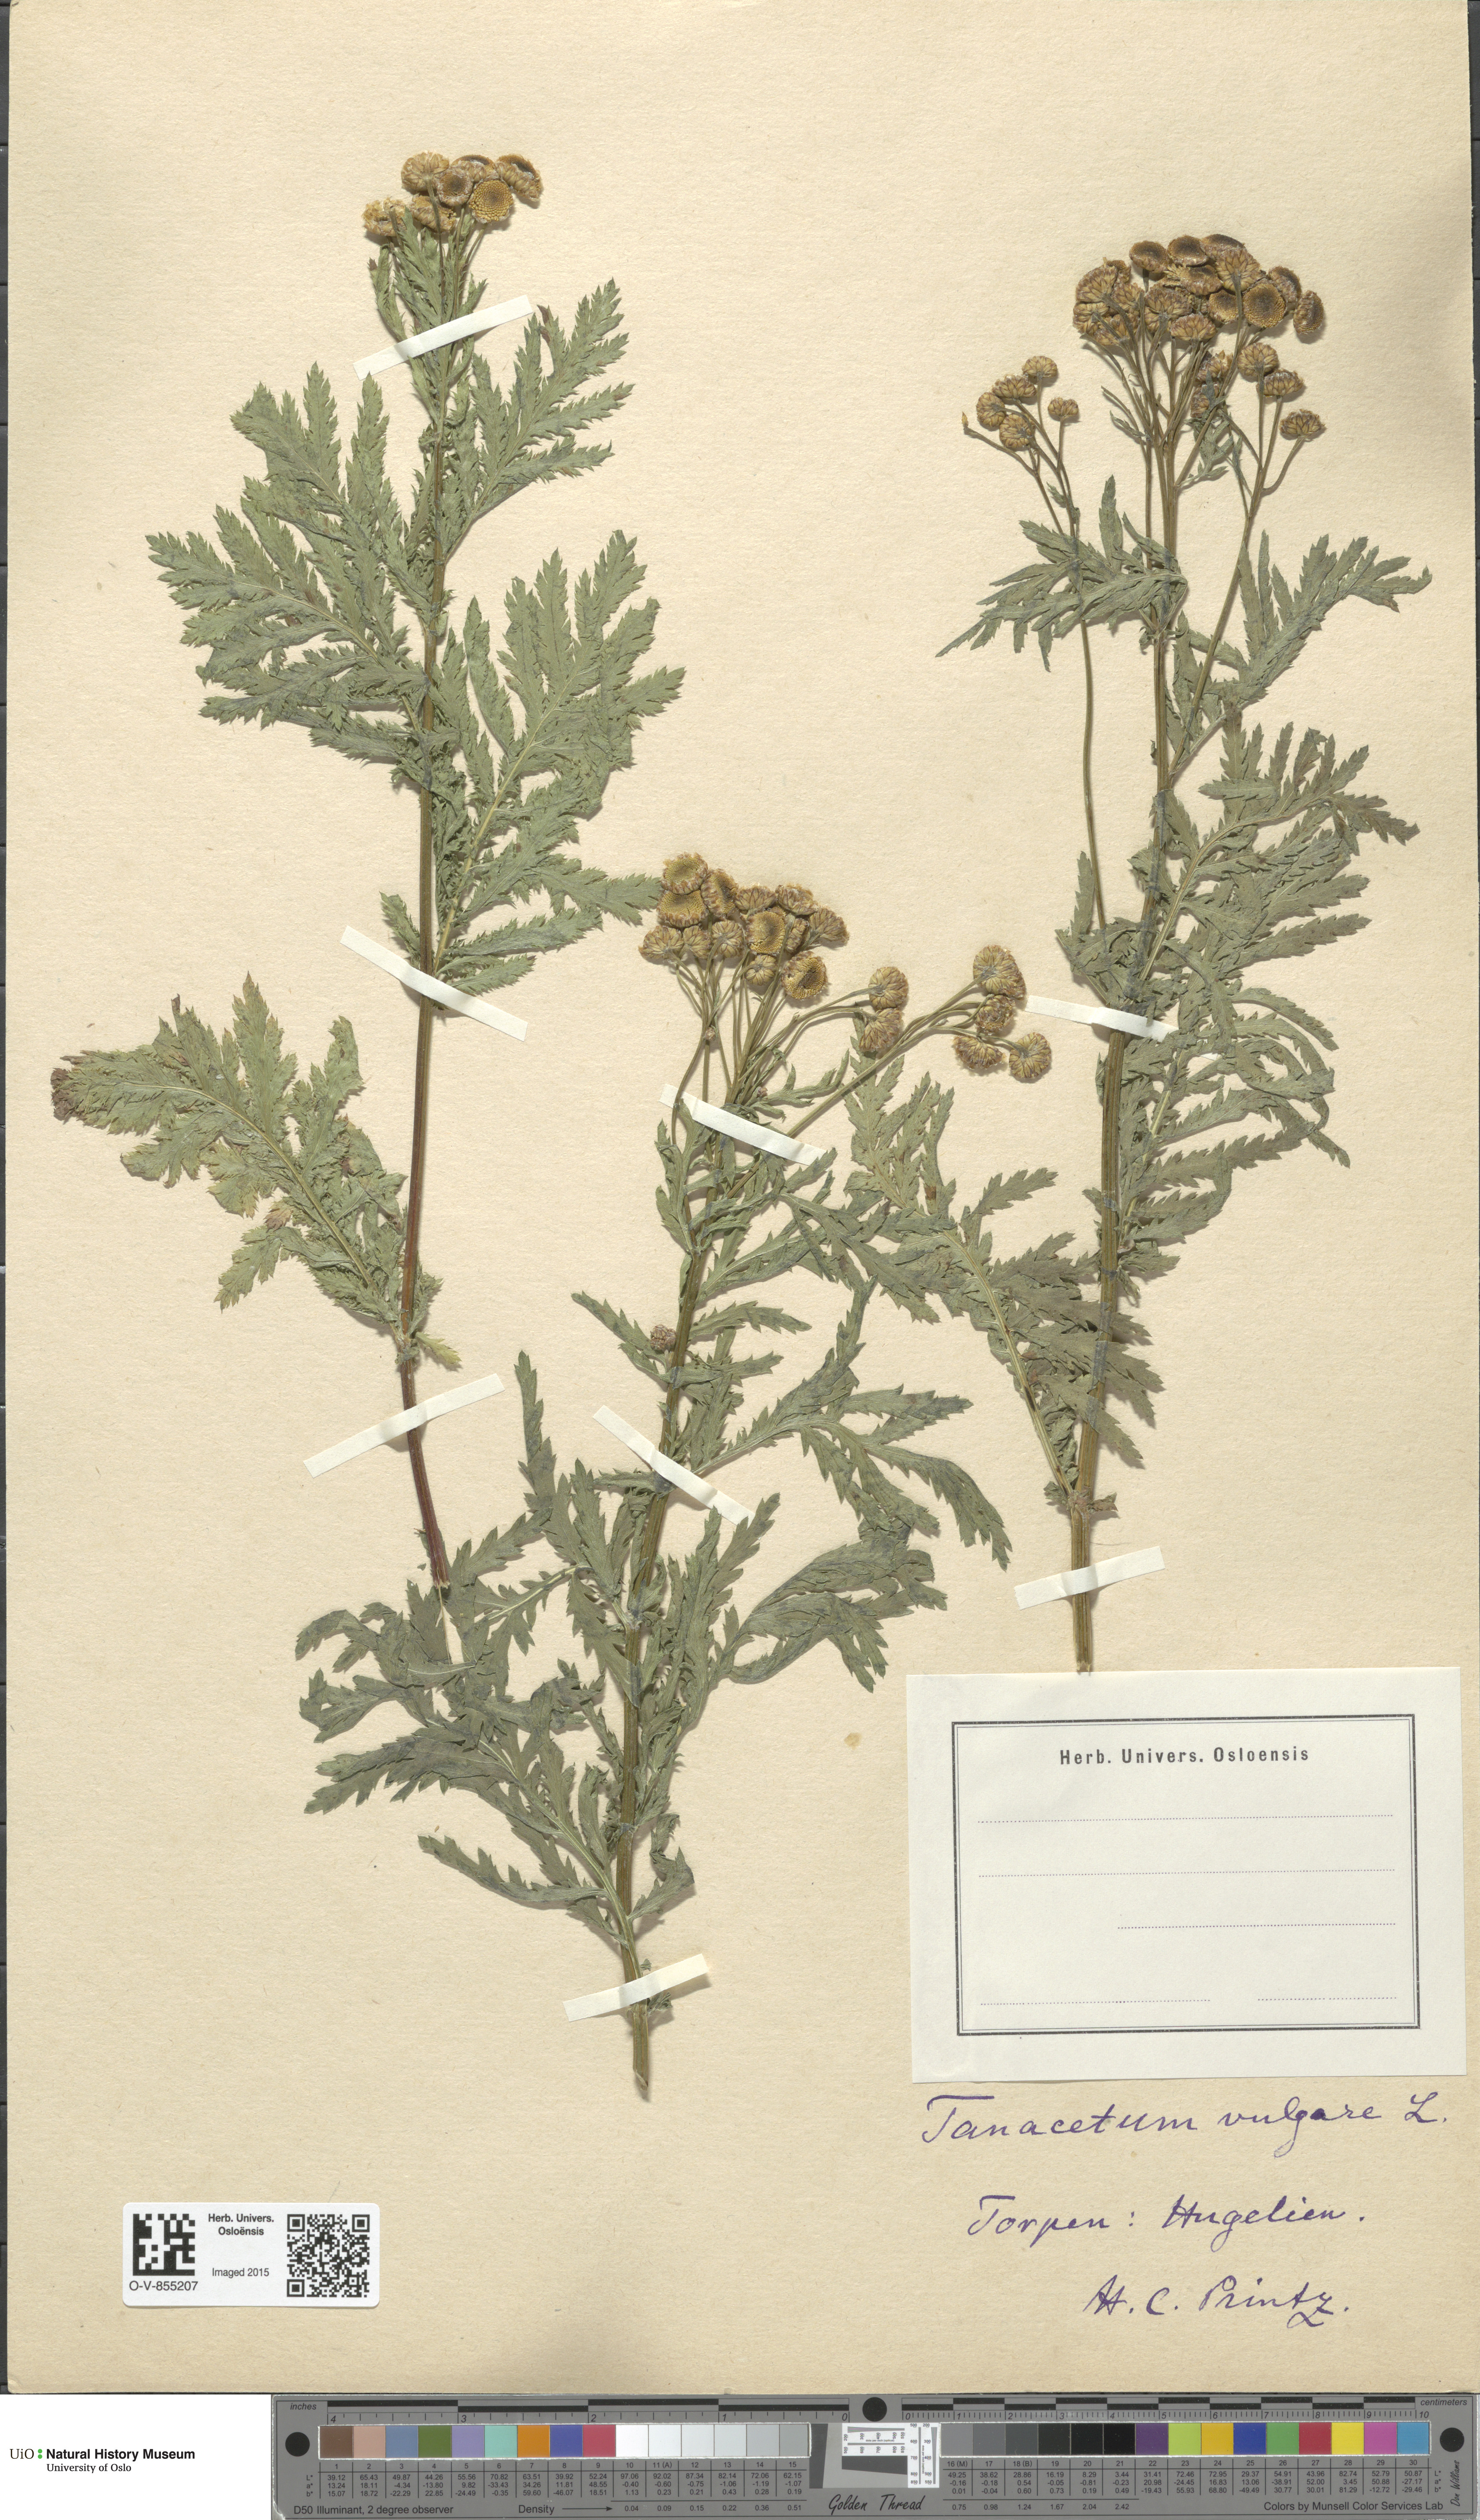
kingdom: Plantae
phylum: Tracheophyta
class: Magnoliopsida
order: Asterales
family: Asteraceae
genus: Tanacetum
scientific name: Tanacetum vulgare
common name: Common tansy
